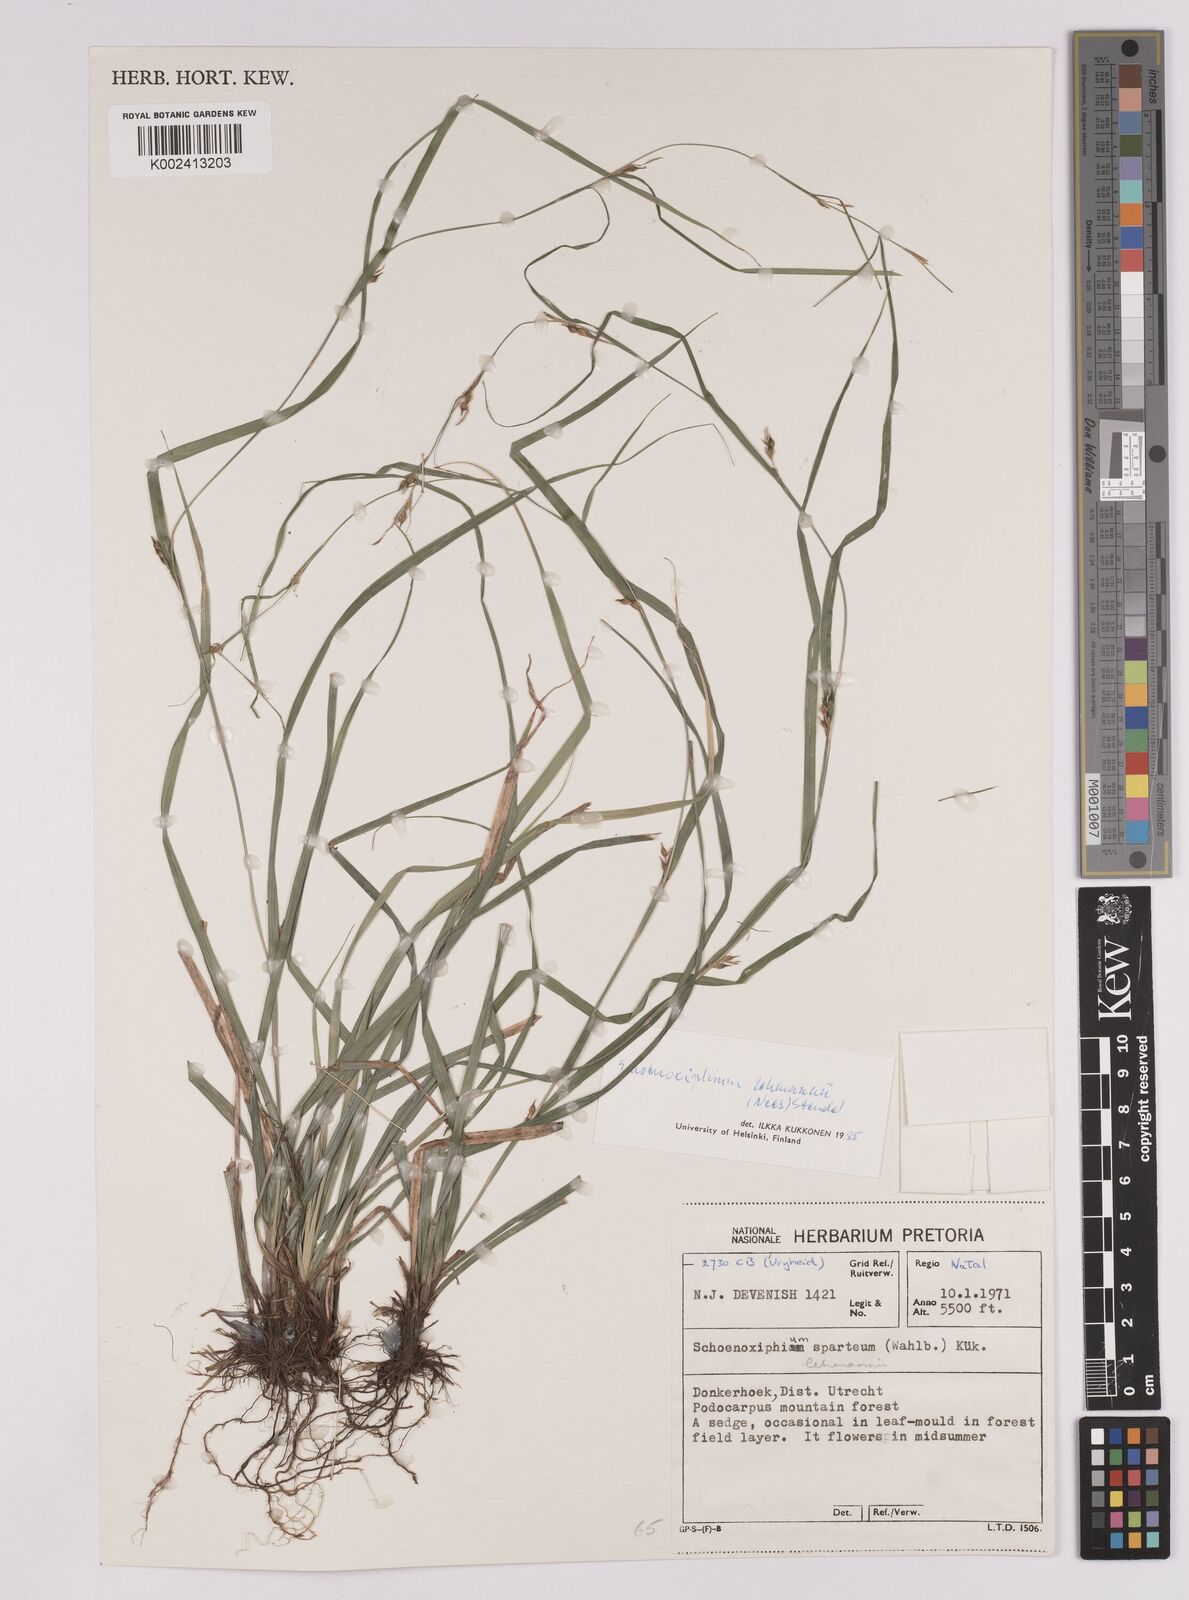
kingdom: Plantae
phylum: Tracheophyta
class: Liliopsida
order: Poales
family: Cyperaceae
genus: Carex
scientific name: Carex uhligii
